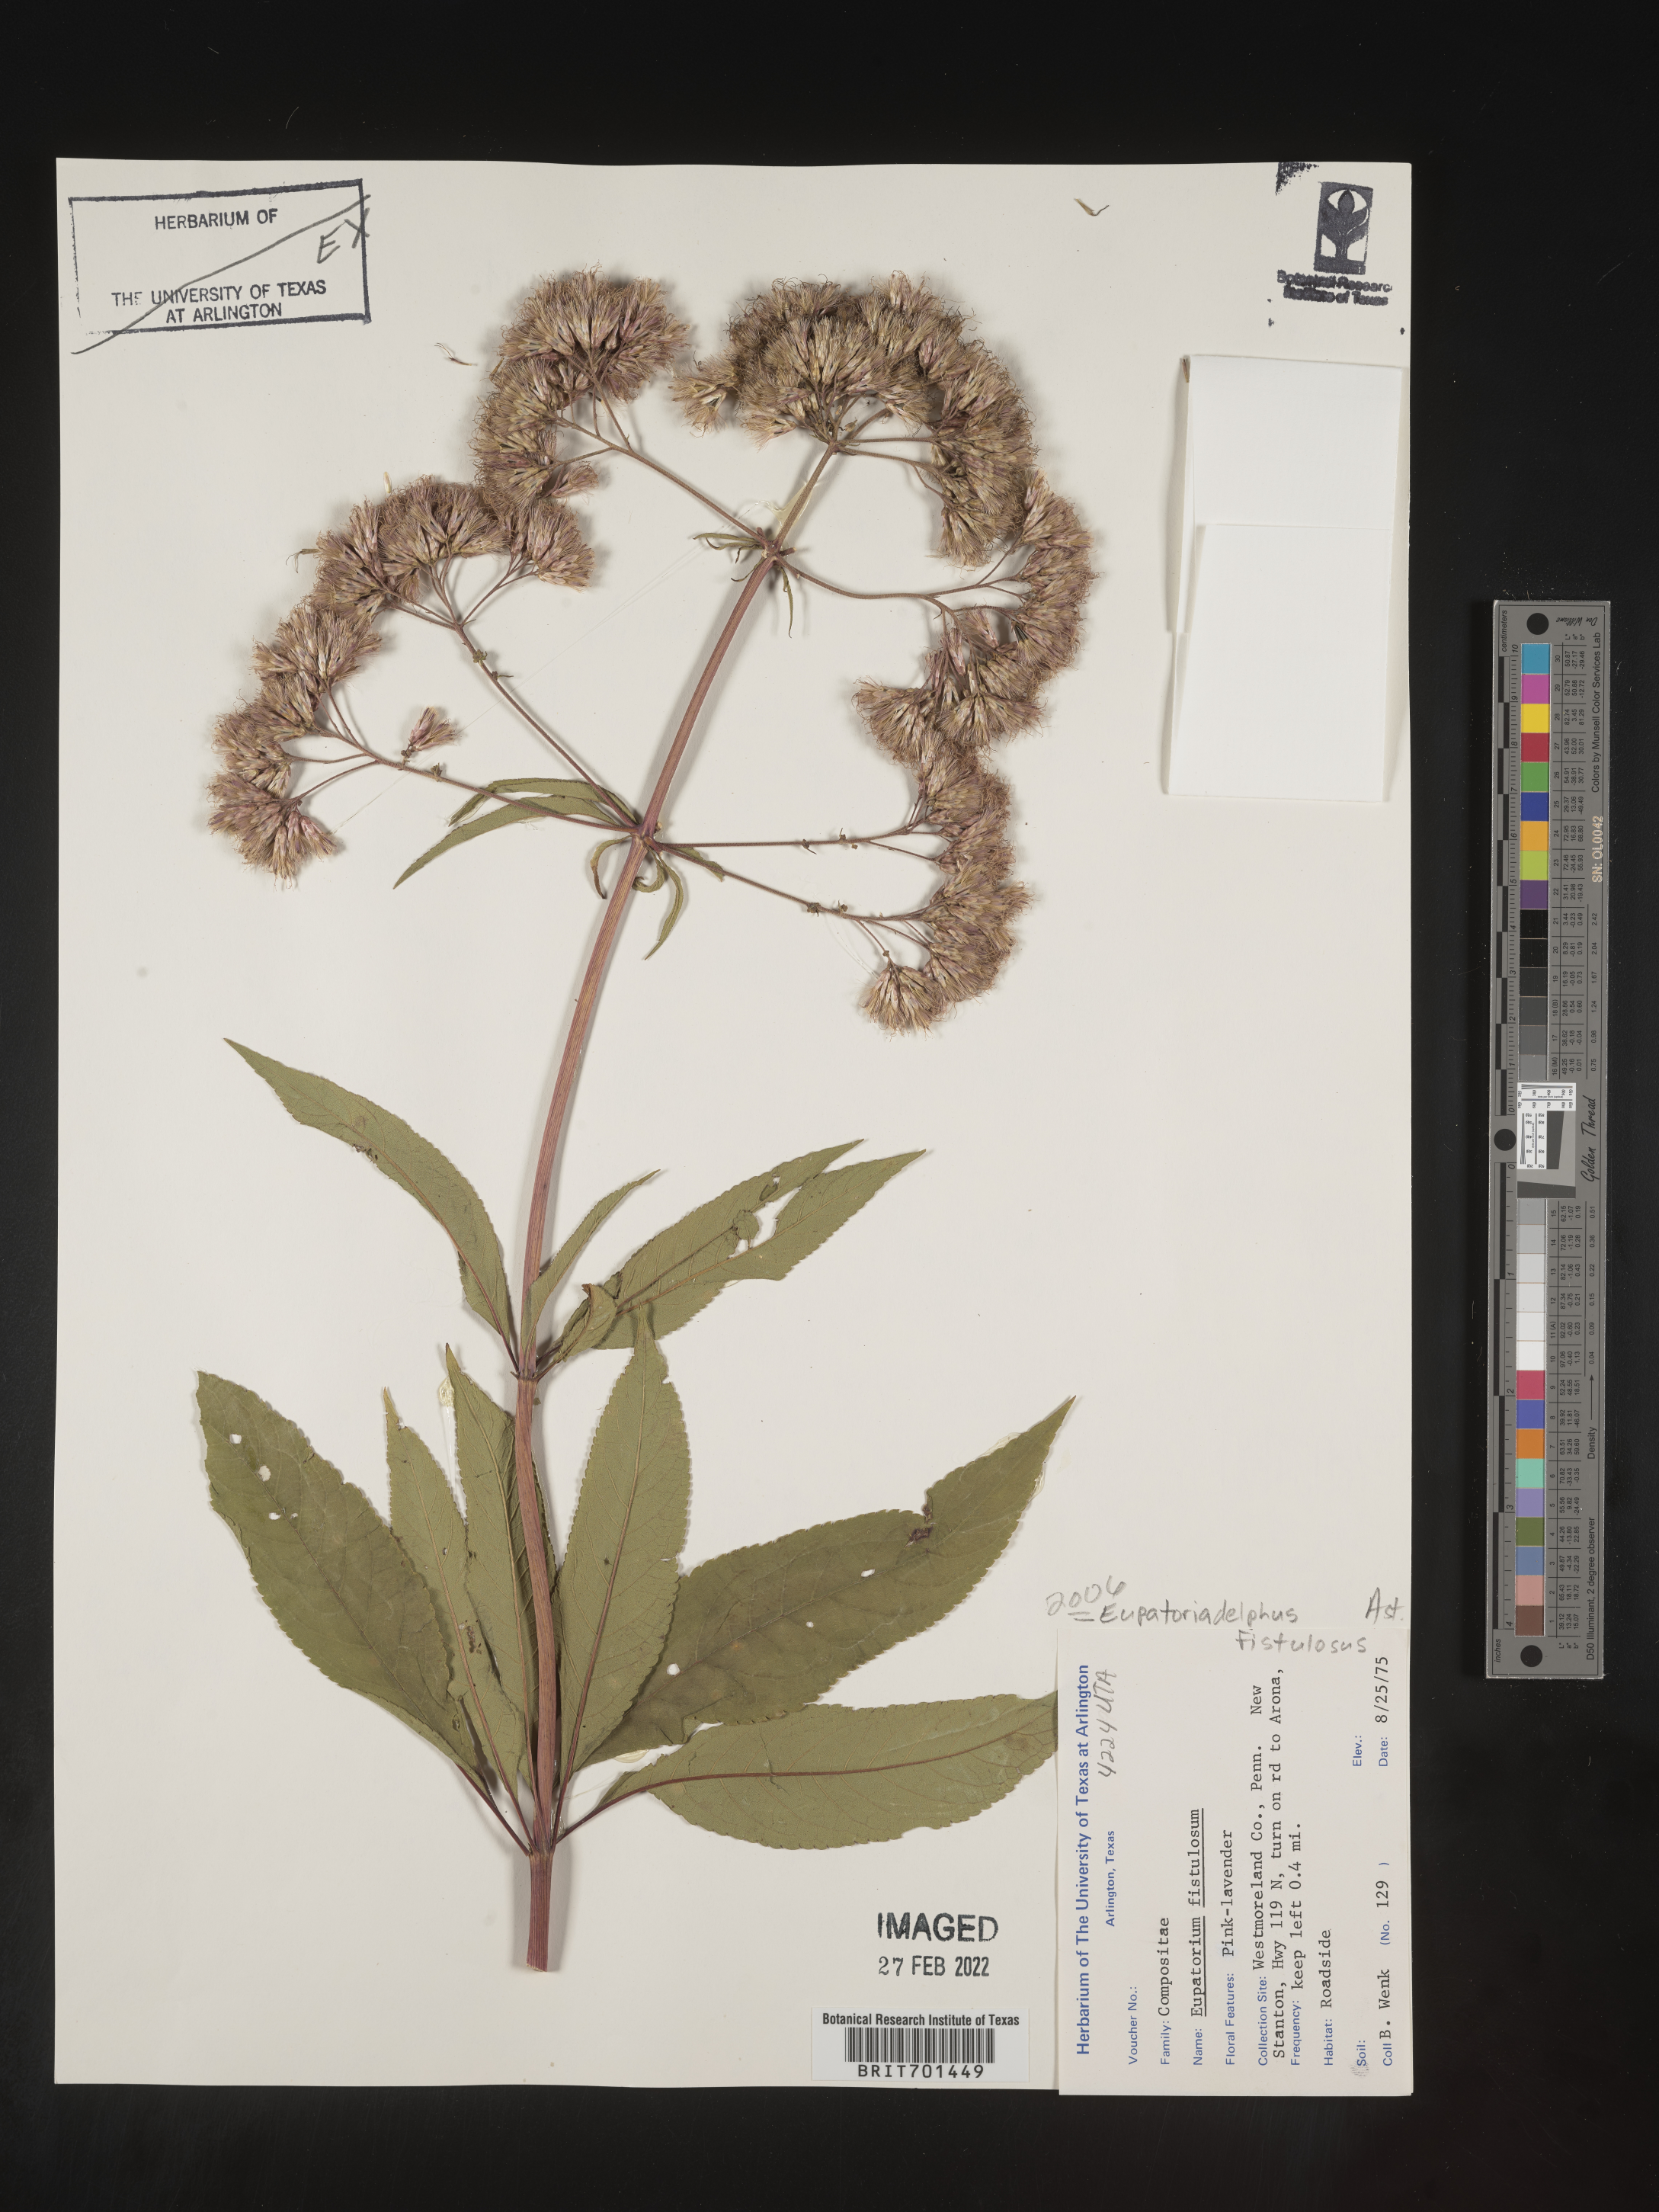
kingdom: Plantae
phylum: Tracheophyta
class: Magnoliopsida
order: Asterales
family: Asteraceae
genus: Eutrochium
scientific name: Eutrochium fistulosum
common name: Trumpetweed
